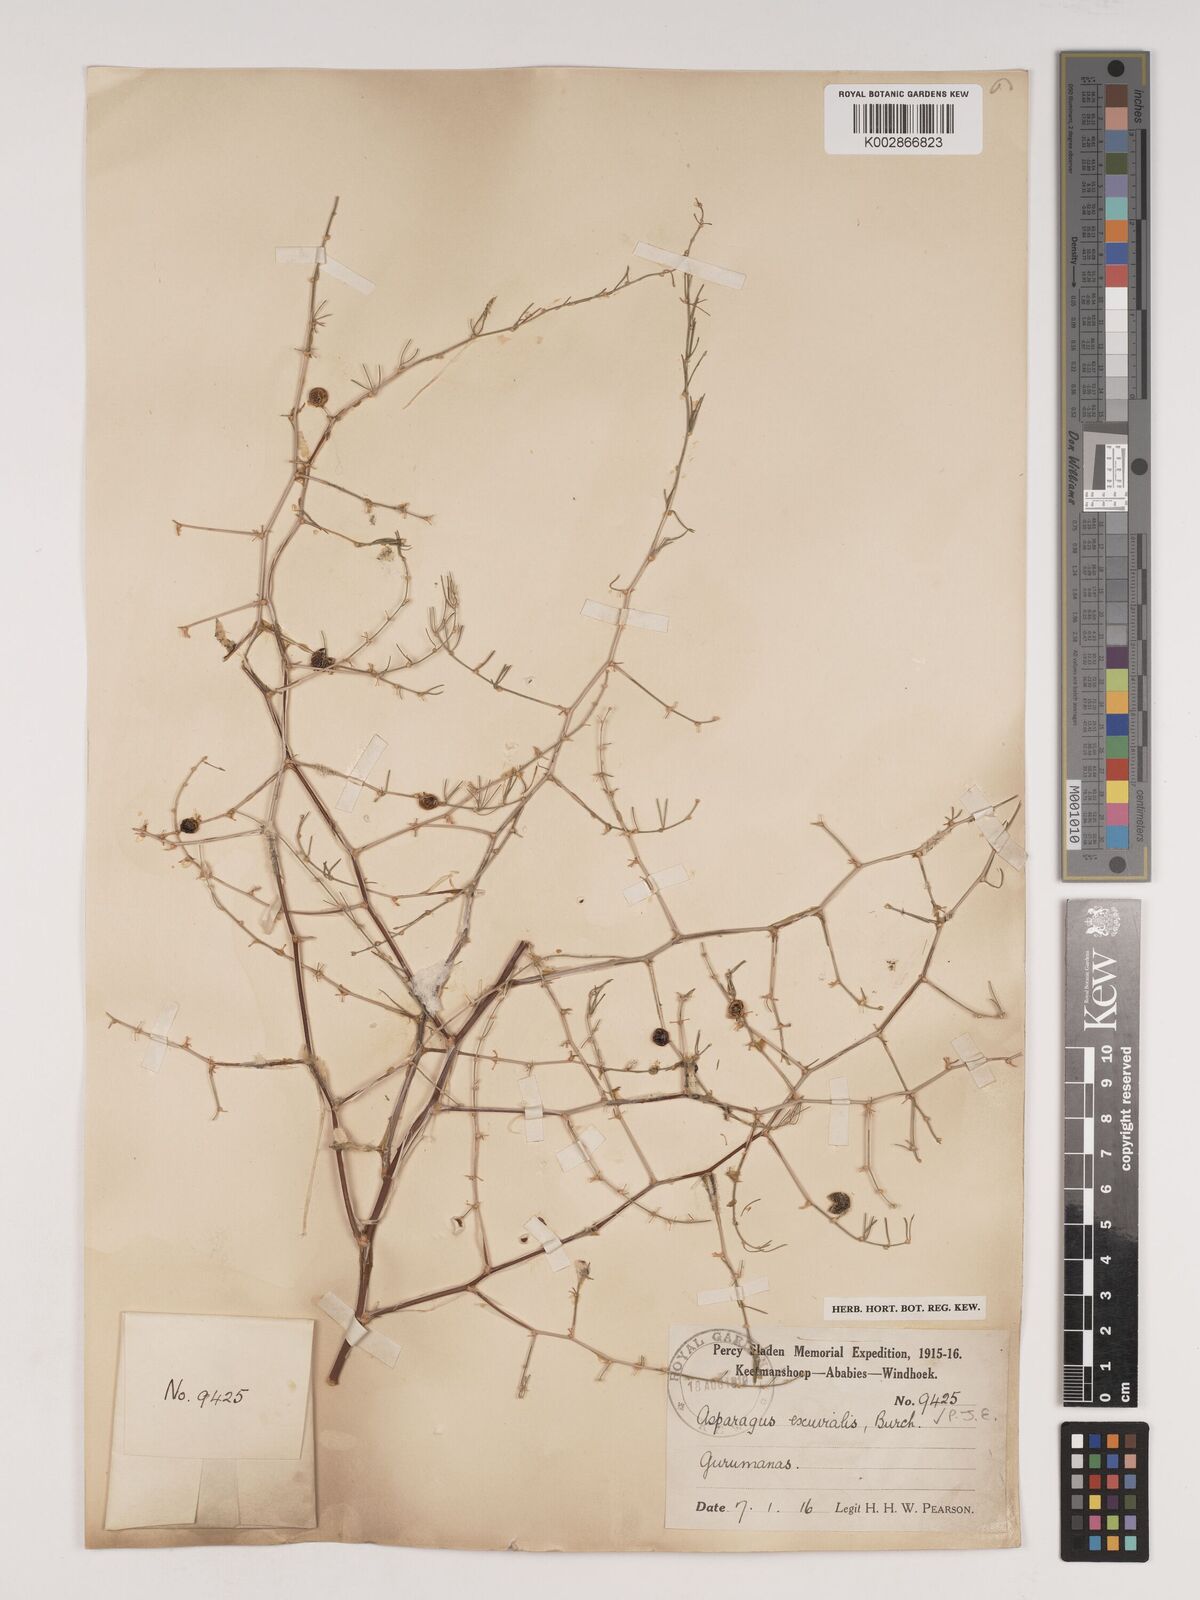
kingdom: Plantae
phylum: Tracheophyta
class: Liliopsida
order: Asparagales
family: Asparagaceae
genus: Asparagus
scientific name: Asparagus exuvialis
